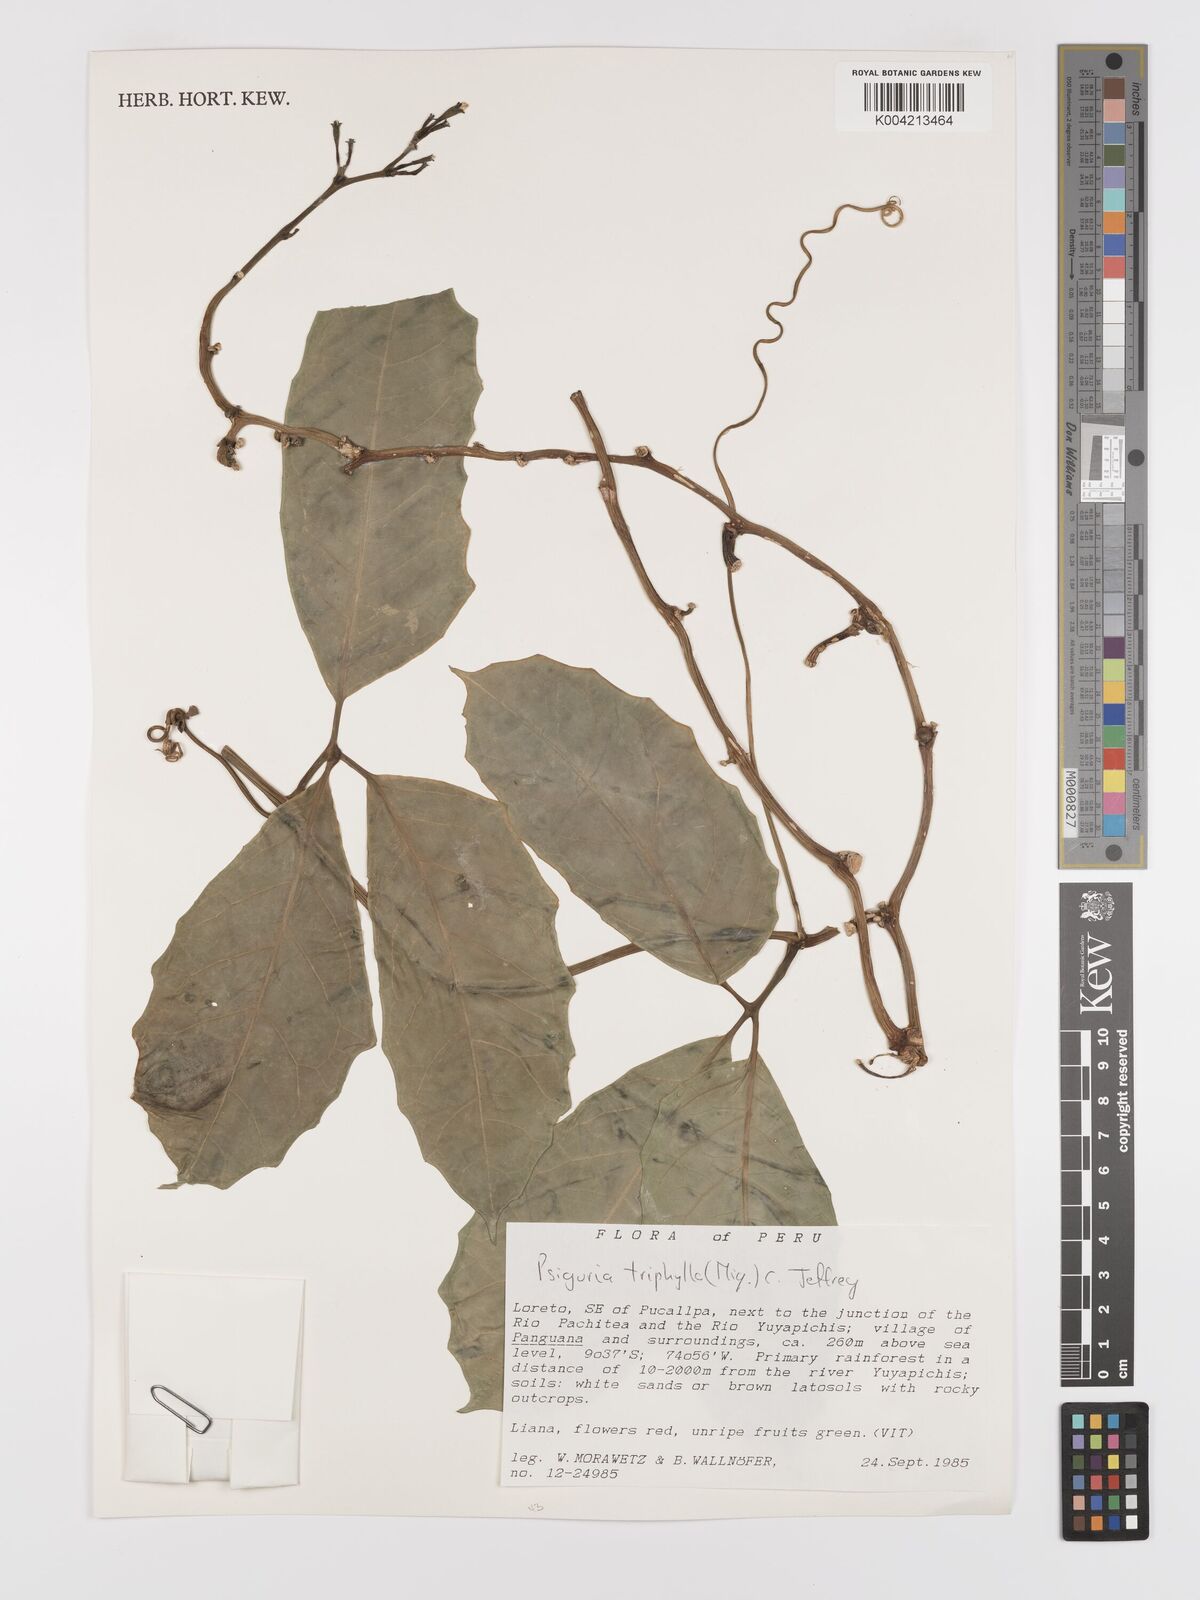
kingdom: Plantae
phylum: Tracheophyta
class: Magnoliopsida
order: Cucurbitales
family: Cucurbitaceae
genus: Psiguria
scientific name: Psiguria triphylla
